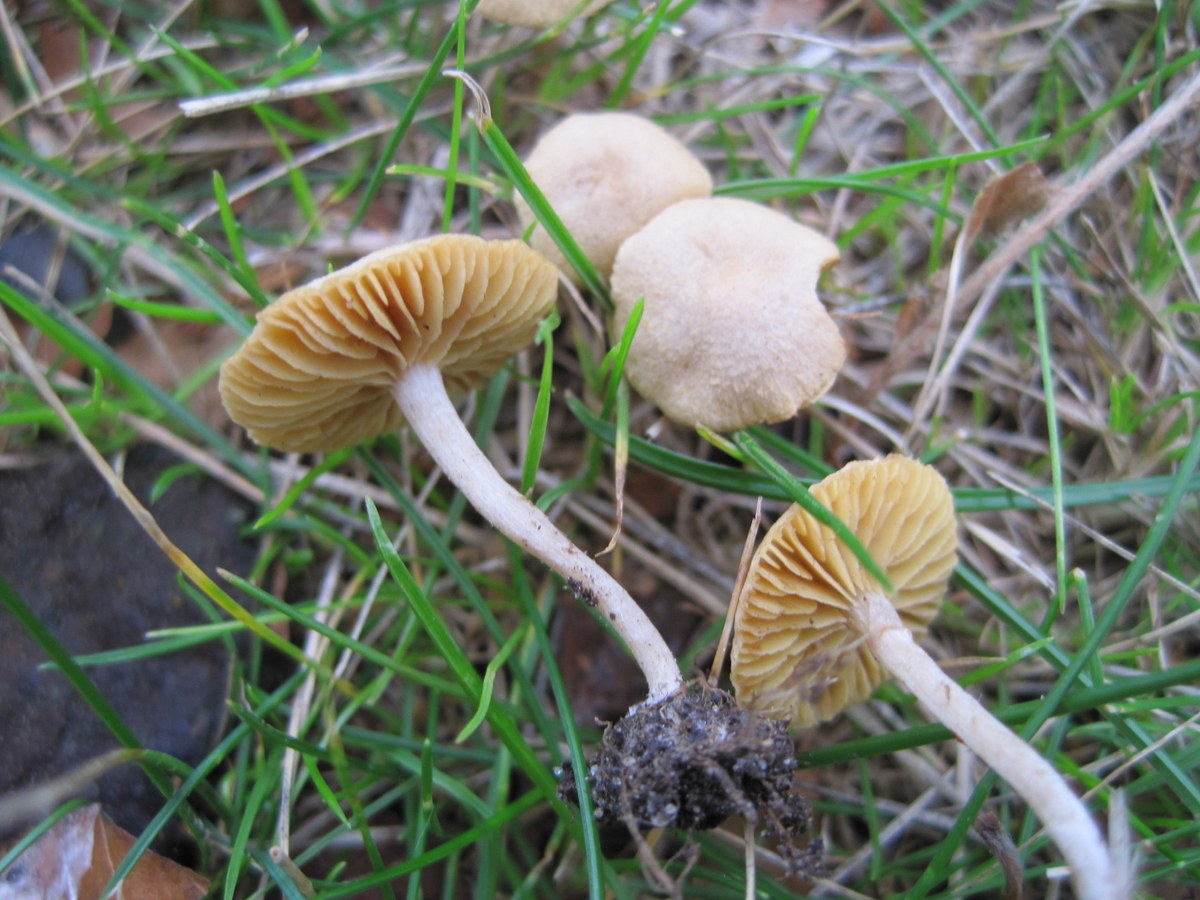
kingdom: Fungi
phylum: Basidiomycota
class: Agaricomycetes
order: Agaricales
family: Tubariaceae
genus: Tubaria
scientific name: Tubaria dispersa
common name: tjørne-fnughat
